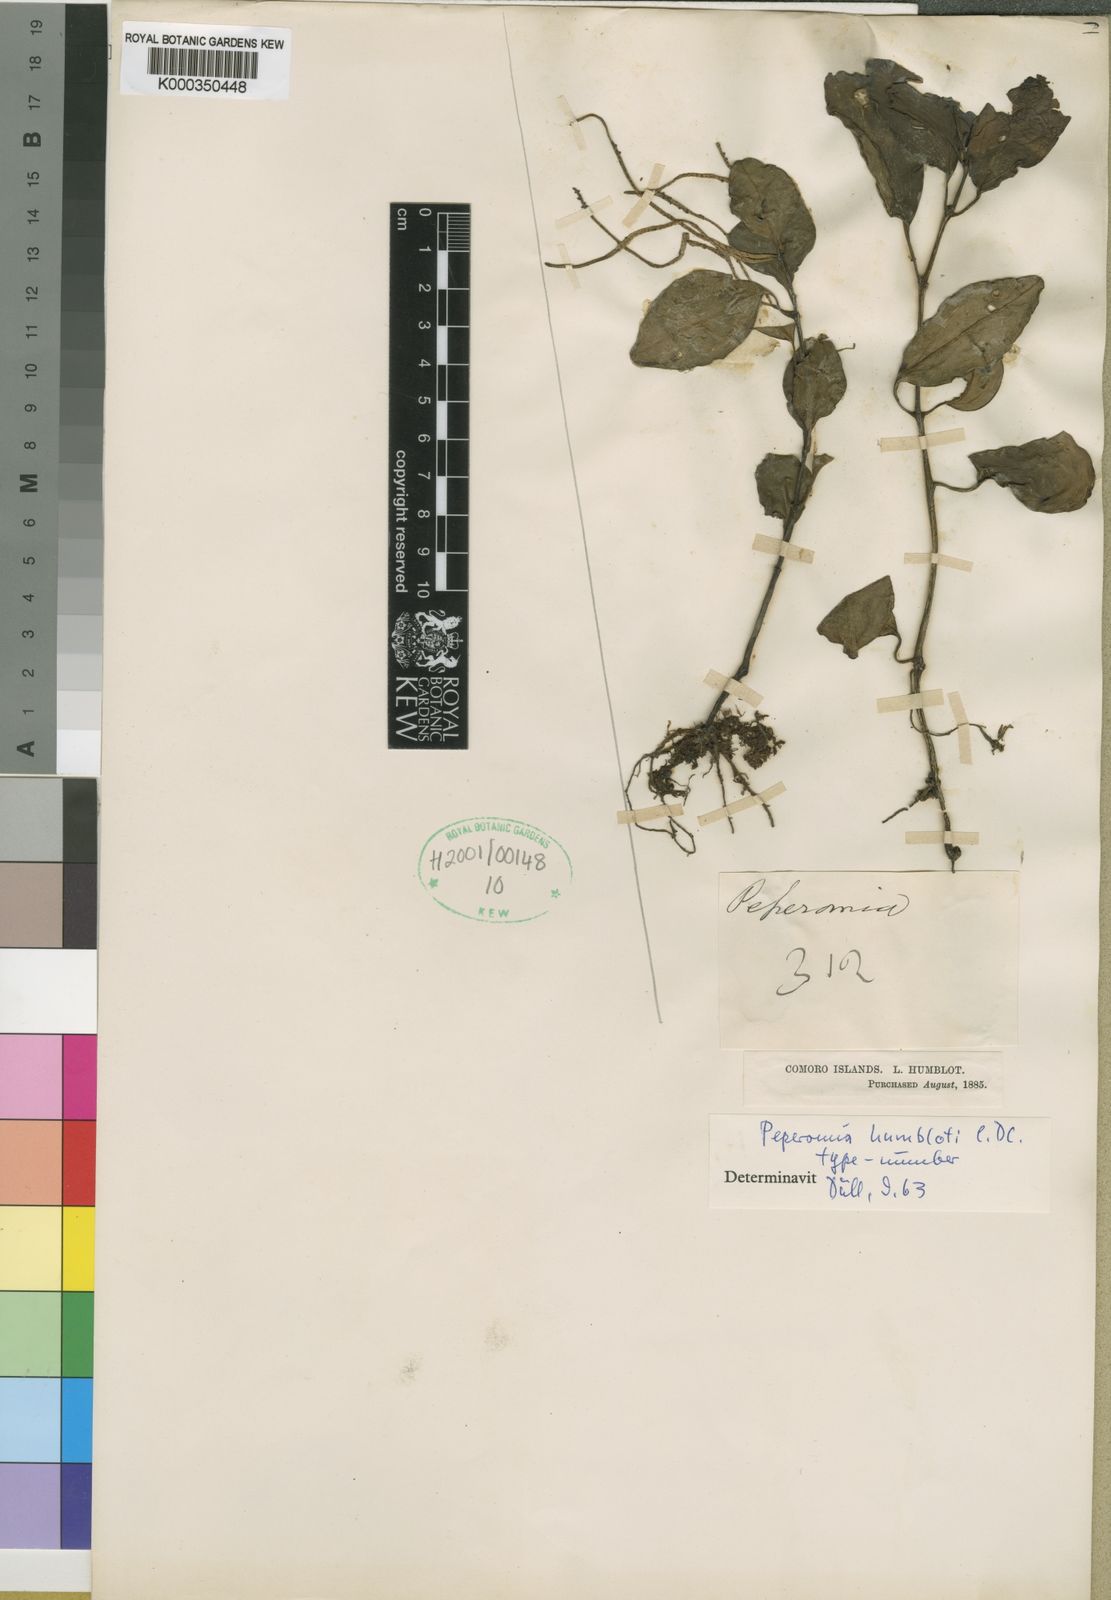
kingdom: Plantae
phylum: Tracheophyta
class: Magnoliopsida
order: Piperales
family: Piperaceae
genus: Peperomia
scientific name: Peperomia boivinii
